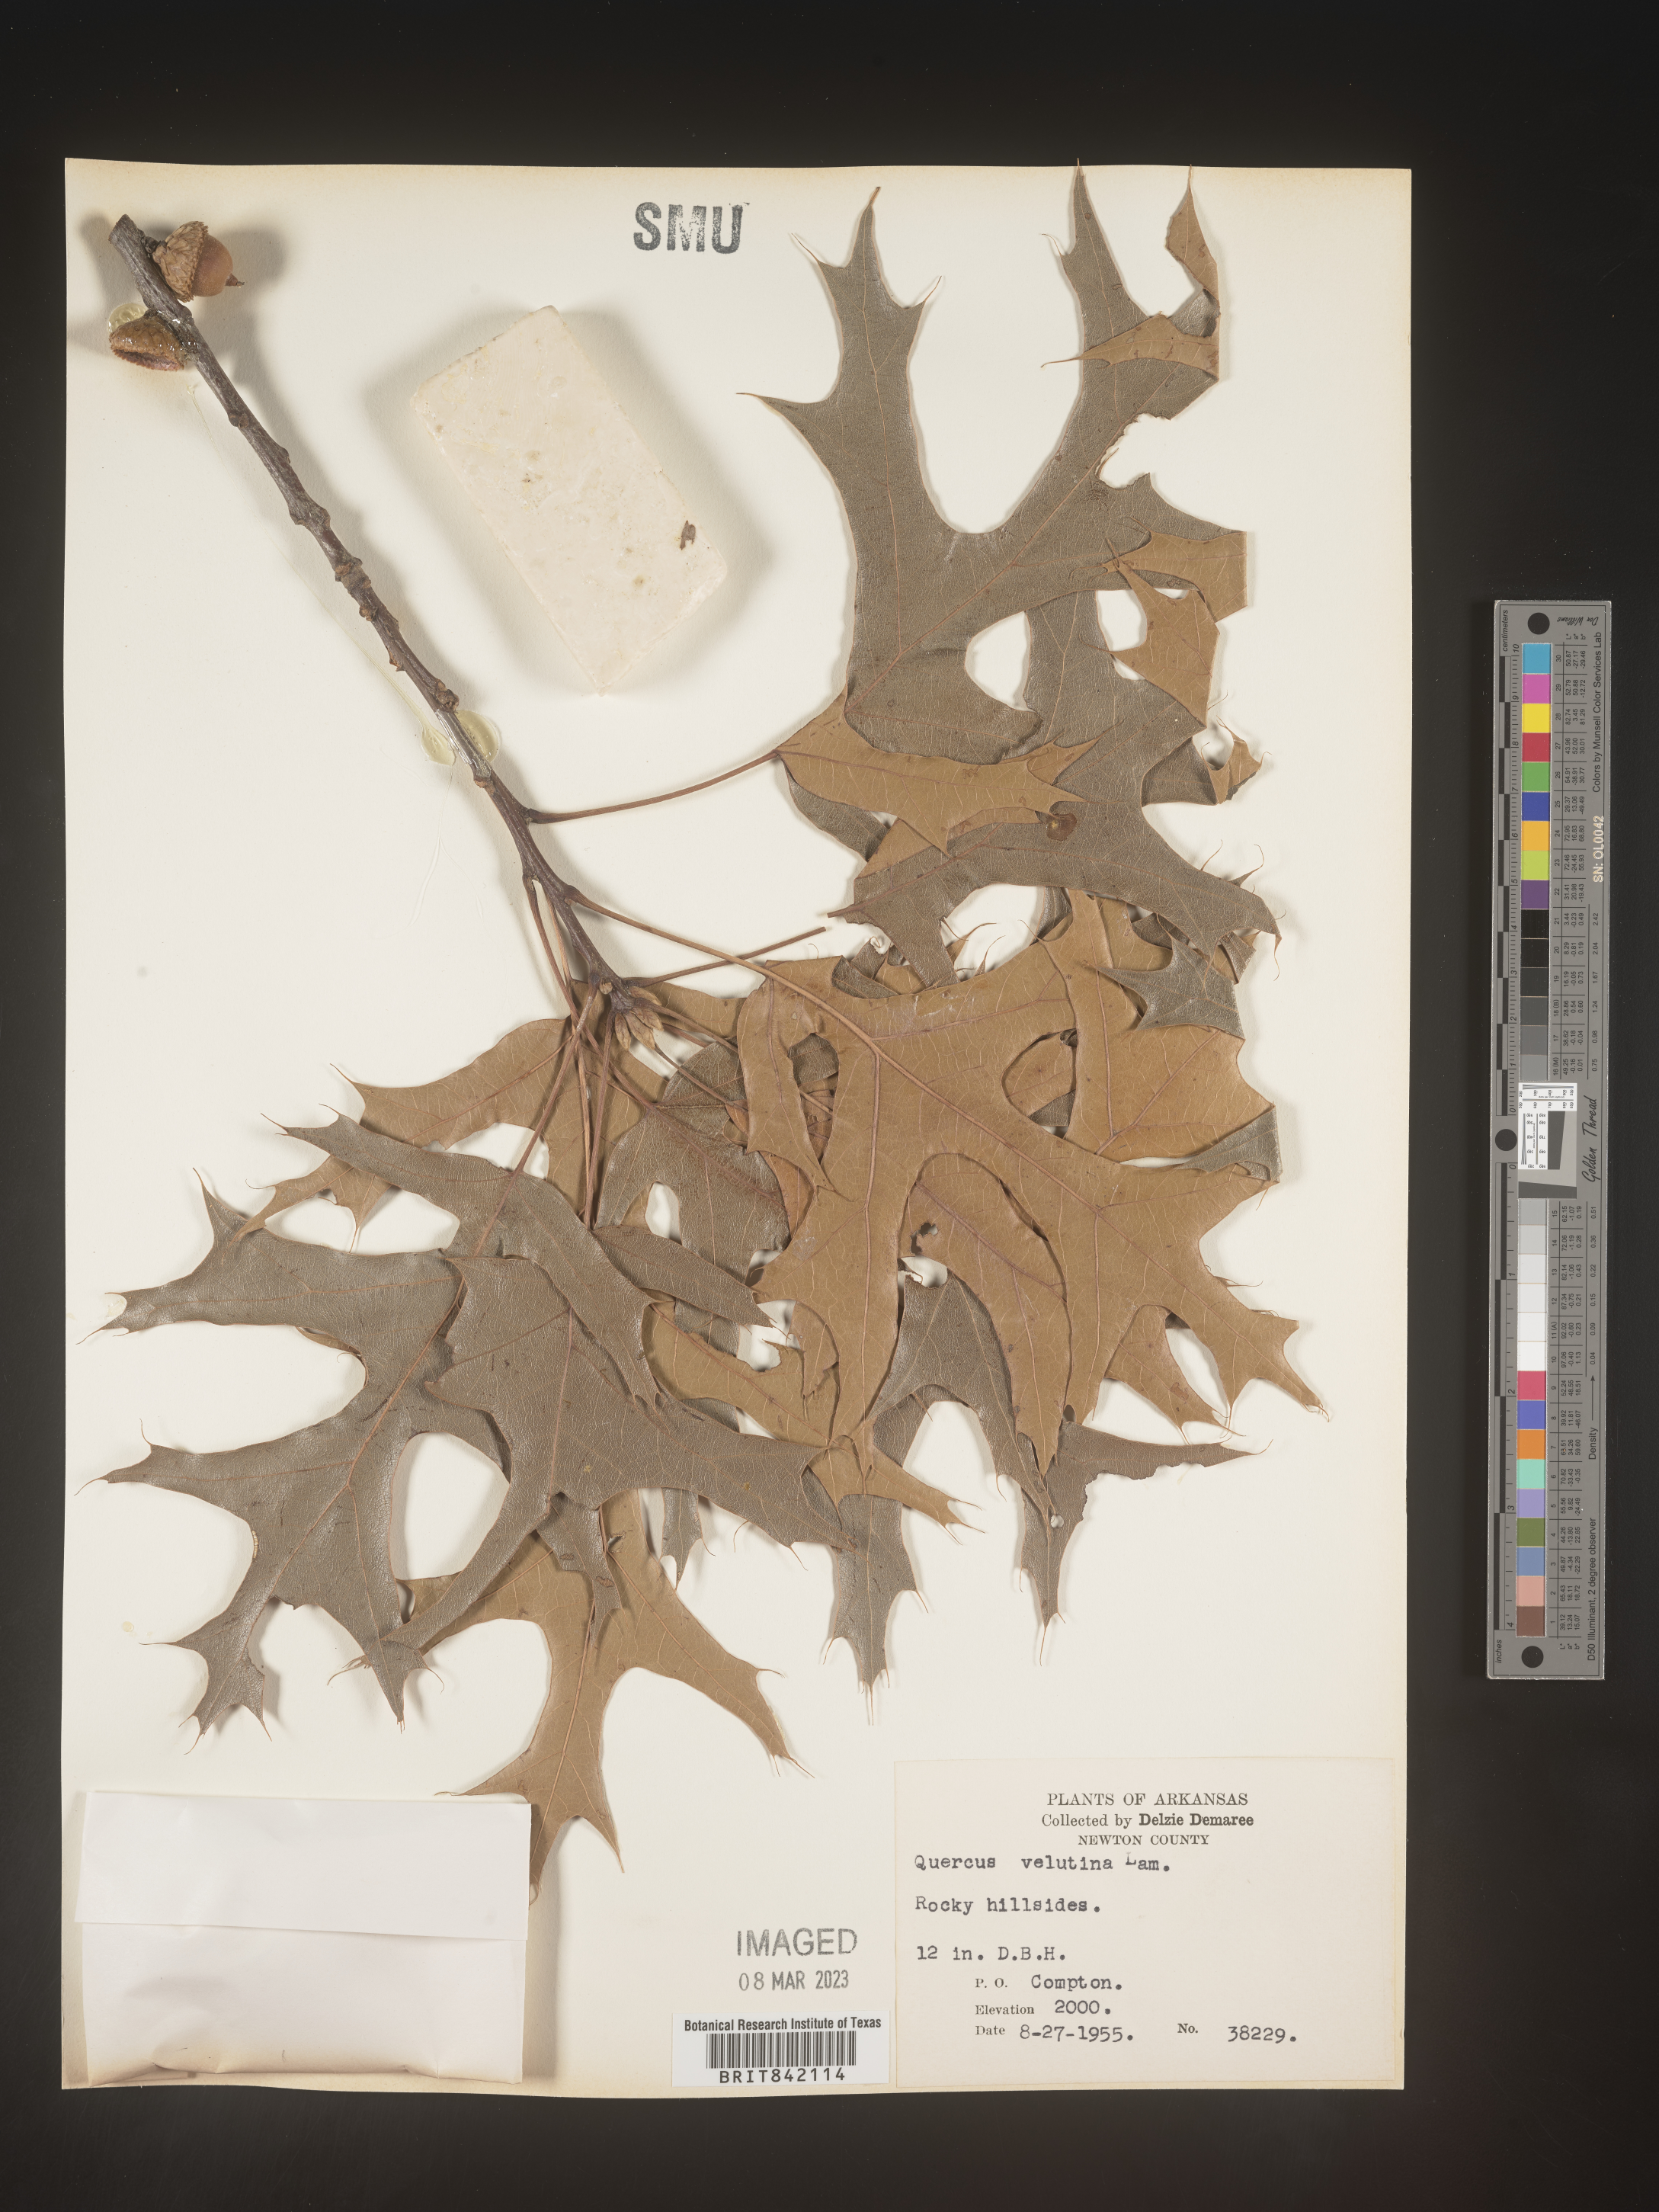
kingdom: Plantae
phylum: Tracheophyta
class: Magnoliopsida
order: Fagales
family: Fagaceae
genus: Quercus
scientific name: Quercus velutina
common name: Black oak
